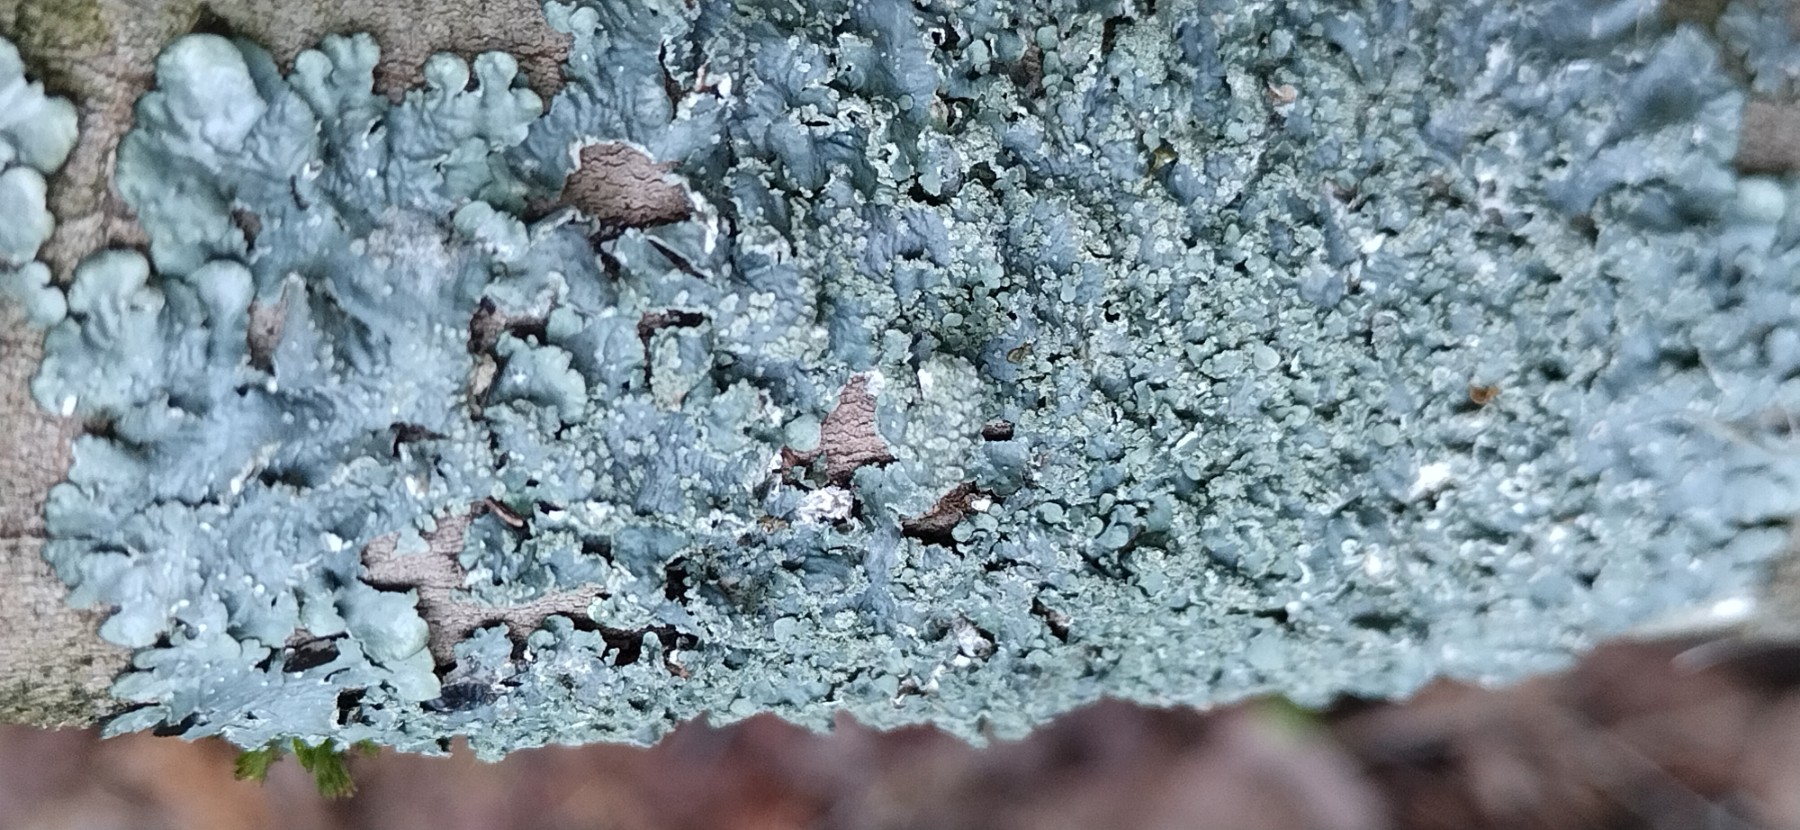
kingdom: Fungi
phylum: Ascomycota
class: Lecanoromycetes
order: Lecanorales
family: Parmeliaceae
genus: Punctelia
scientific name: Punctelia subrudecta
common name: punkt-skållav
